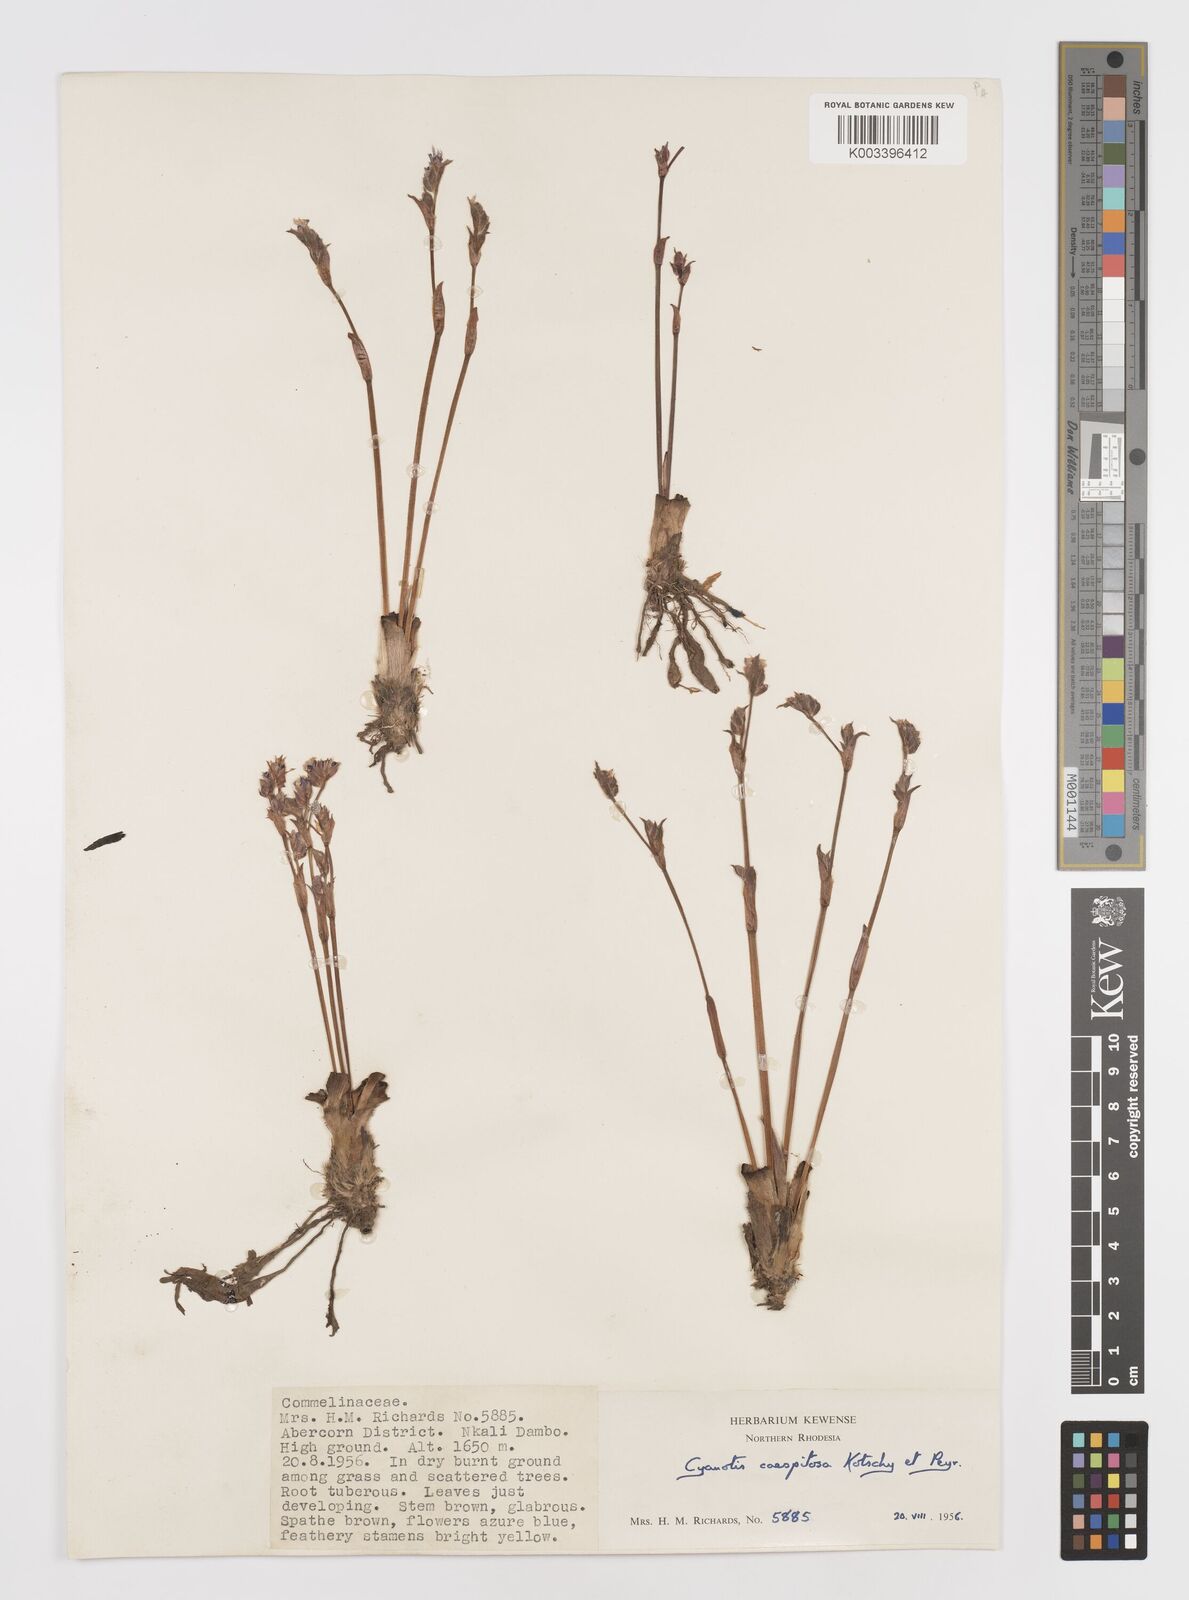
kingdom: Plantae
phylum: Tracheophyta
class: Liliopsida
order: Commelinales
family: Commelinaceae
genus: Cyanotis
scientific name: Cyanotis caespitosa
